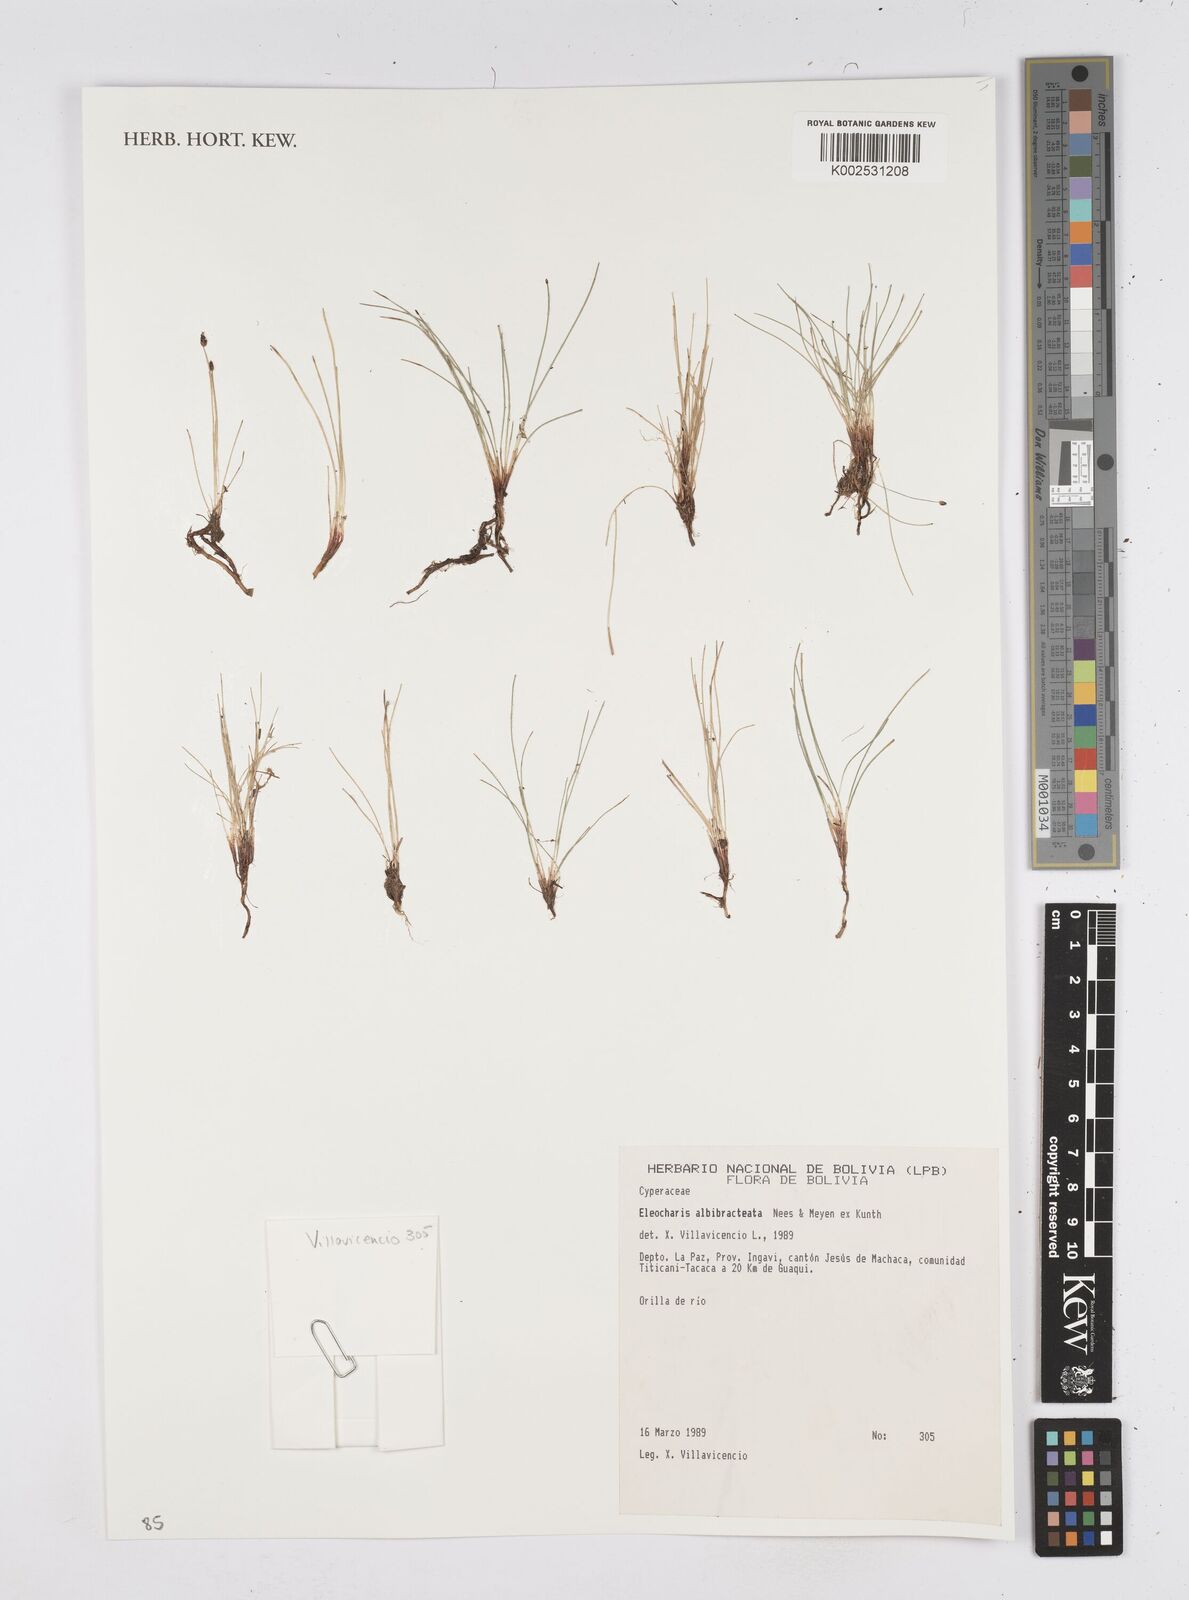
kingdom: Plantae
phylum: Tracheophyta
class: Liliopsida
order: Poales
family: Cyperaceae
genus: Eleocharis
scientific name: Eleocharis albibracteata
